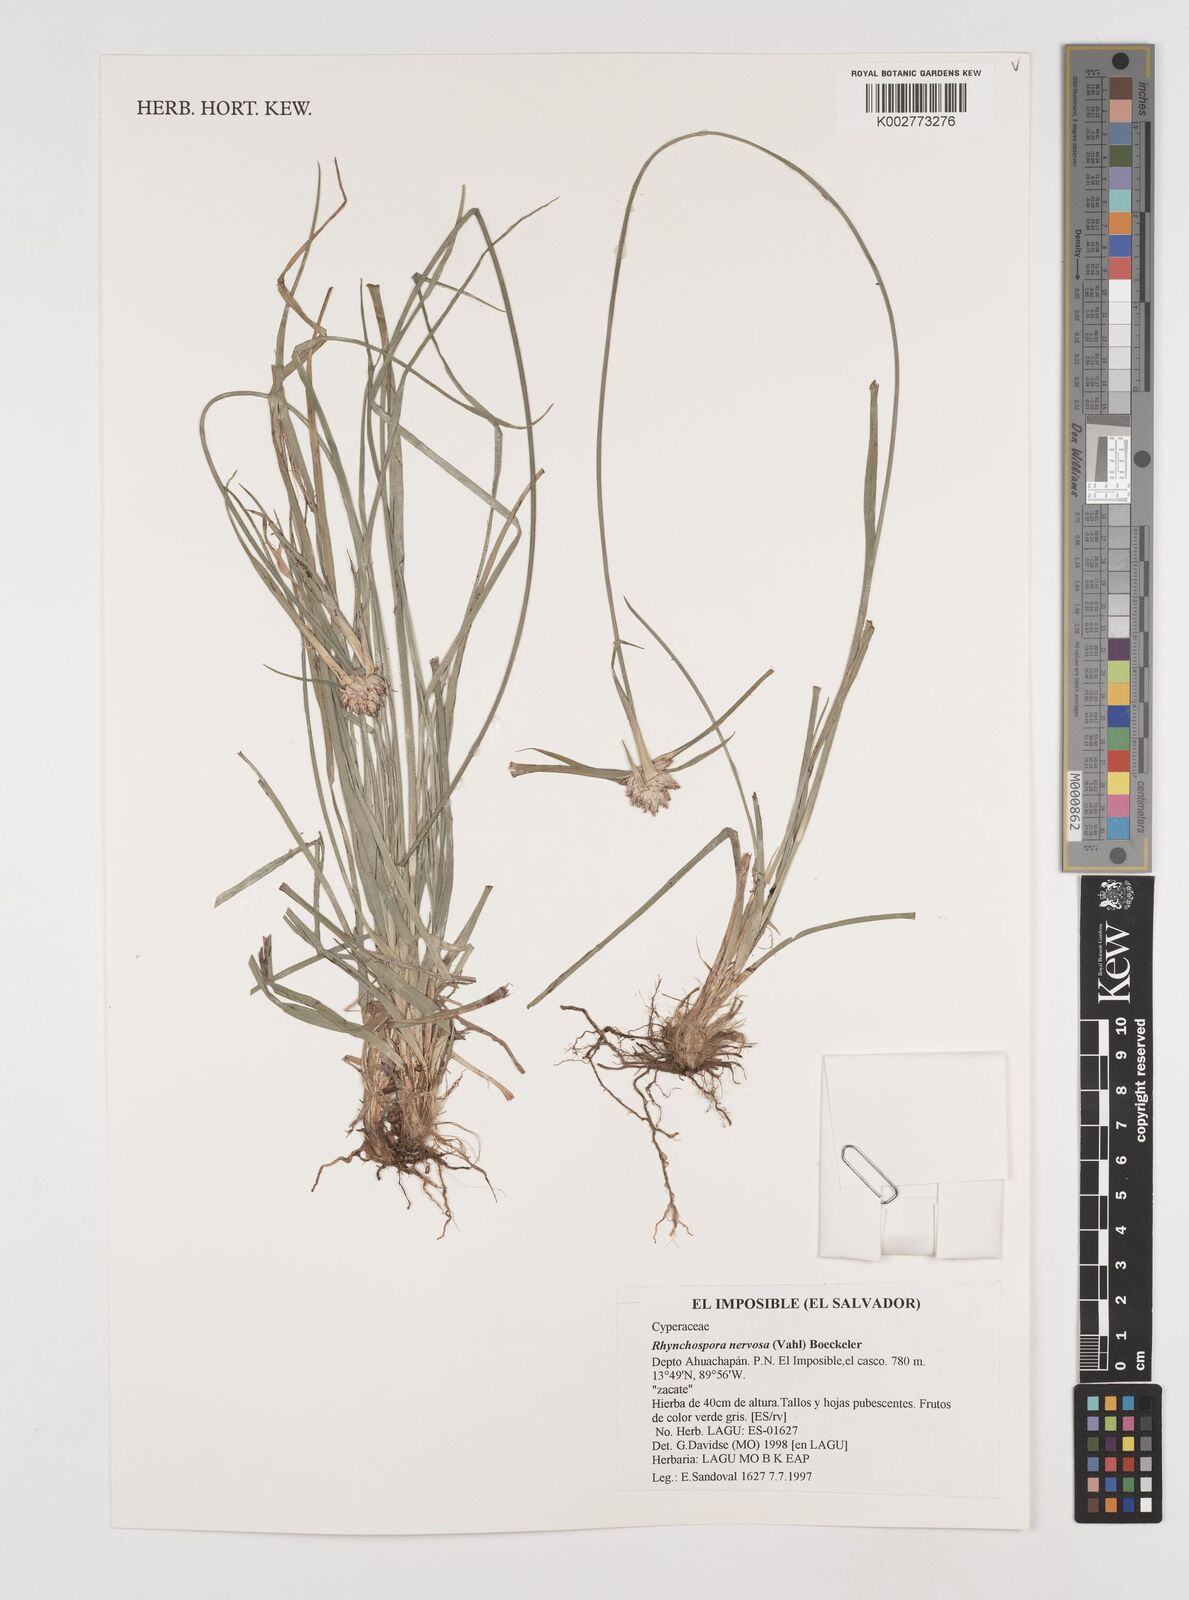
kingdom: Plantae
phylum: Tracheophyta
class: Liliopsida
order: Poales
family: Cyperaceae
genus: Rhynchospora
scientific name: Rhynchospora nervosa
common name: Star sedge
